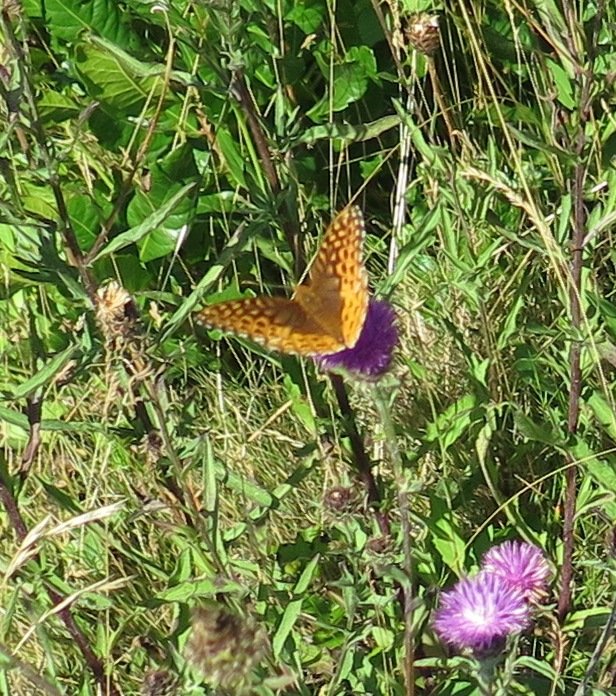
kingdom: Animalia
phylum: Arthropoda
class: Insecta
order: Lepidoptera
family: Nymphalidae
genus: Speyeria
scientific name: Speyeria cybele
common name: Great Spangled Fritillary
